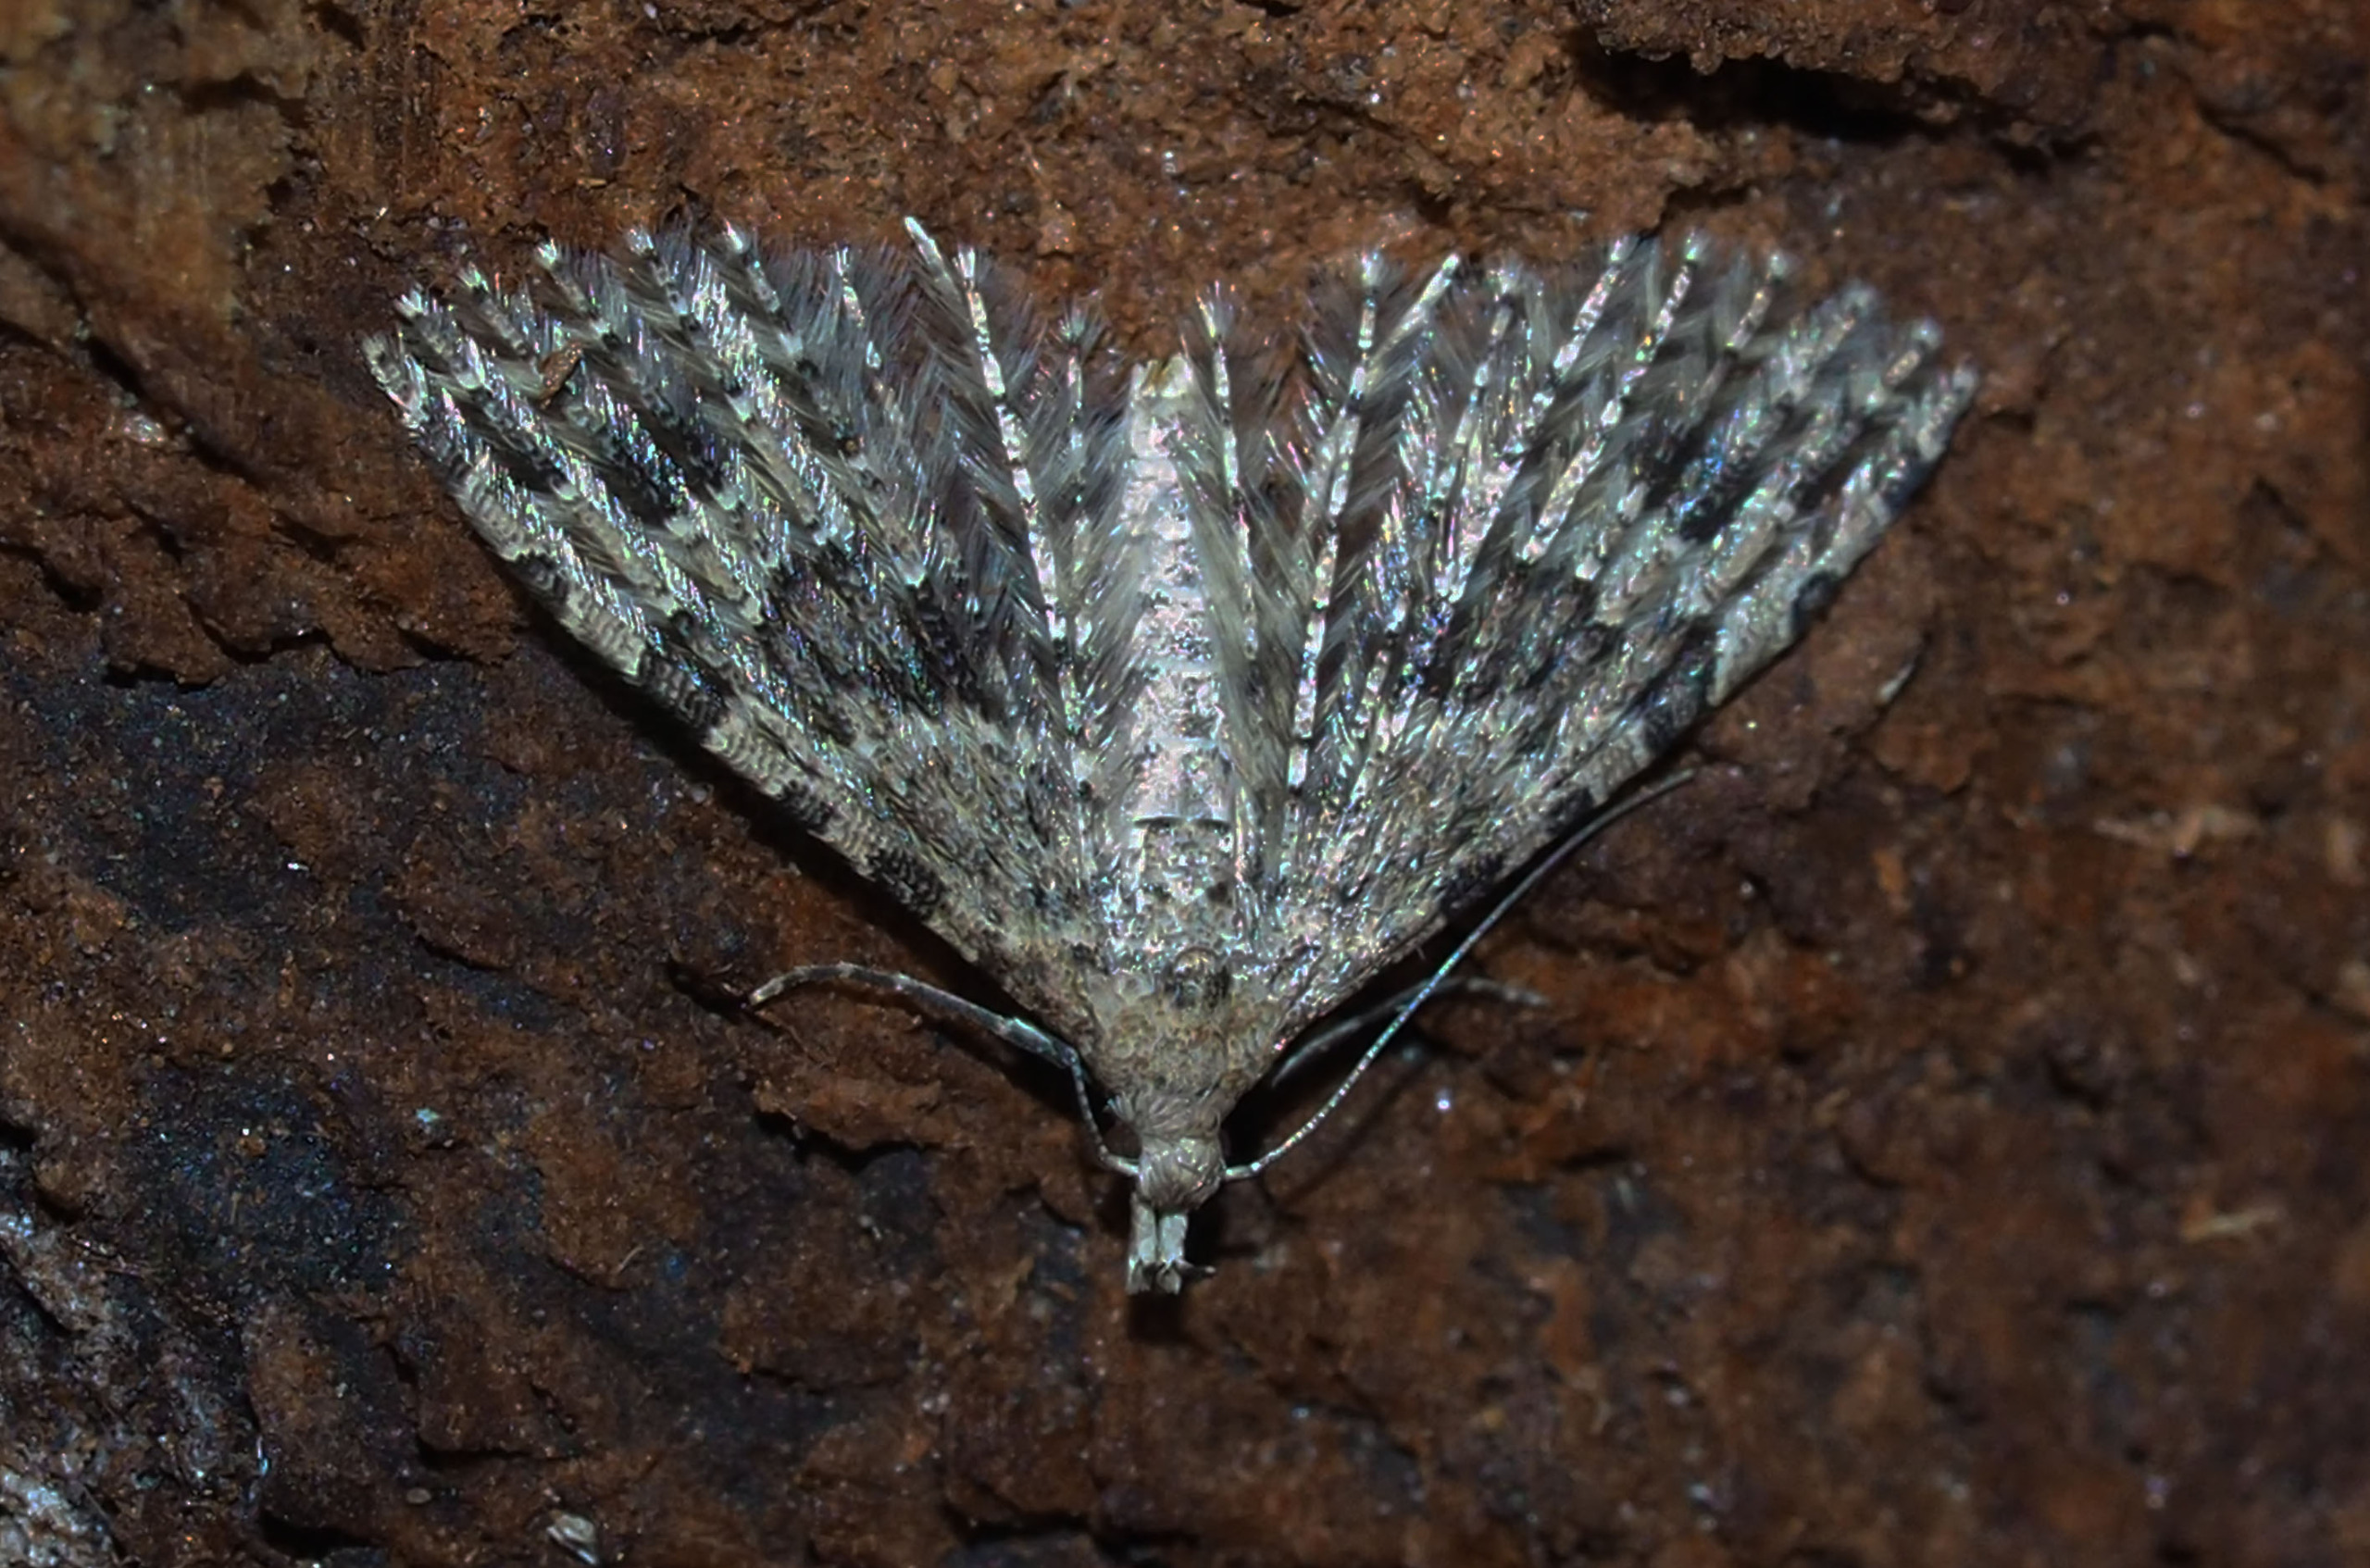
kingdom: Animalia
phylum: Arthropoda
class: Insecta
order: Lepidoptera
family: Alucitidae
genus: Alucita
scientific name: Alucita hexadactyla
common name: Kaprifoliefjermøl
